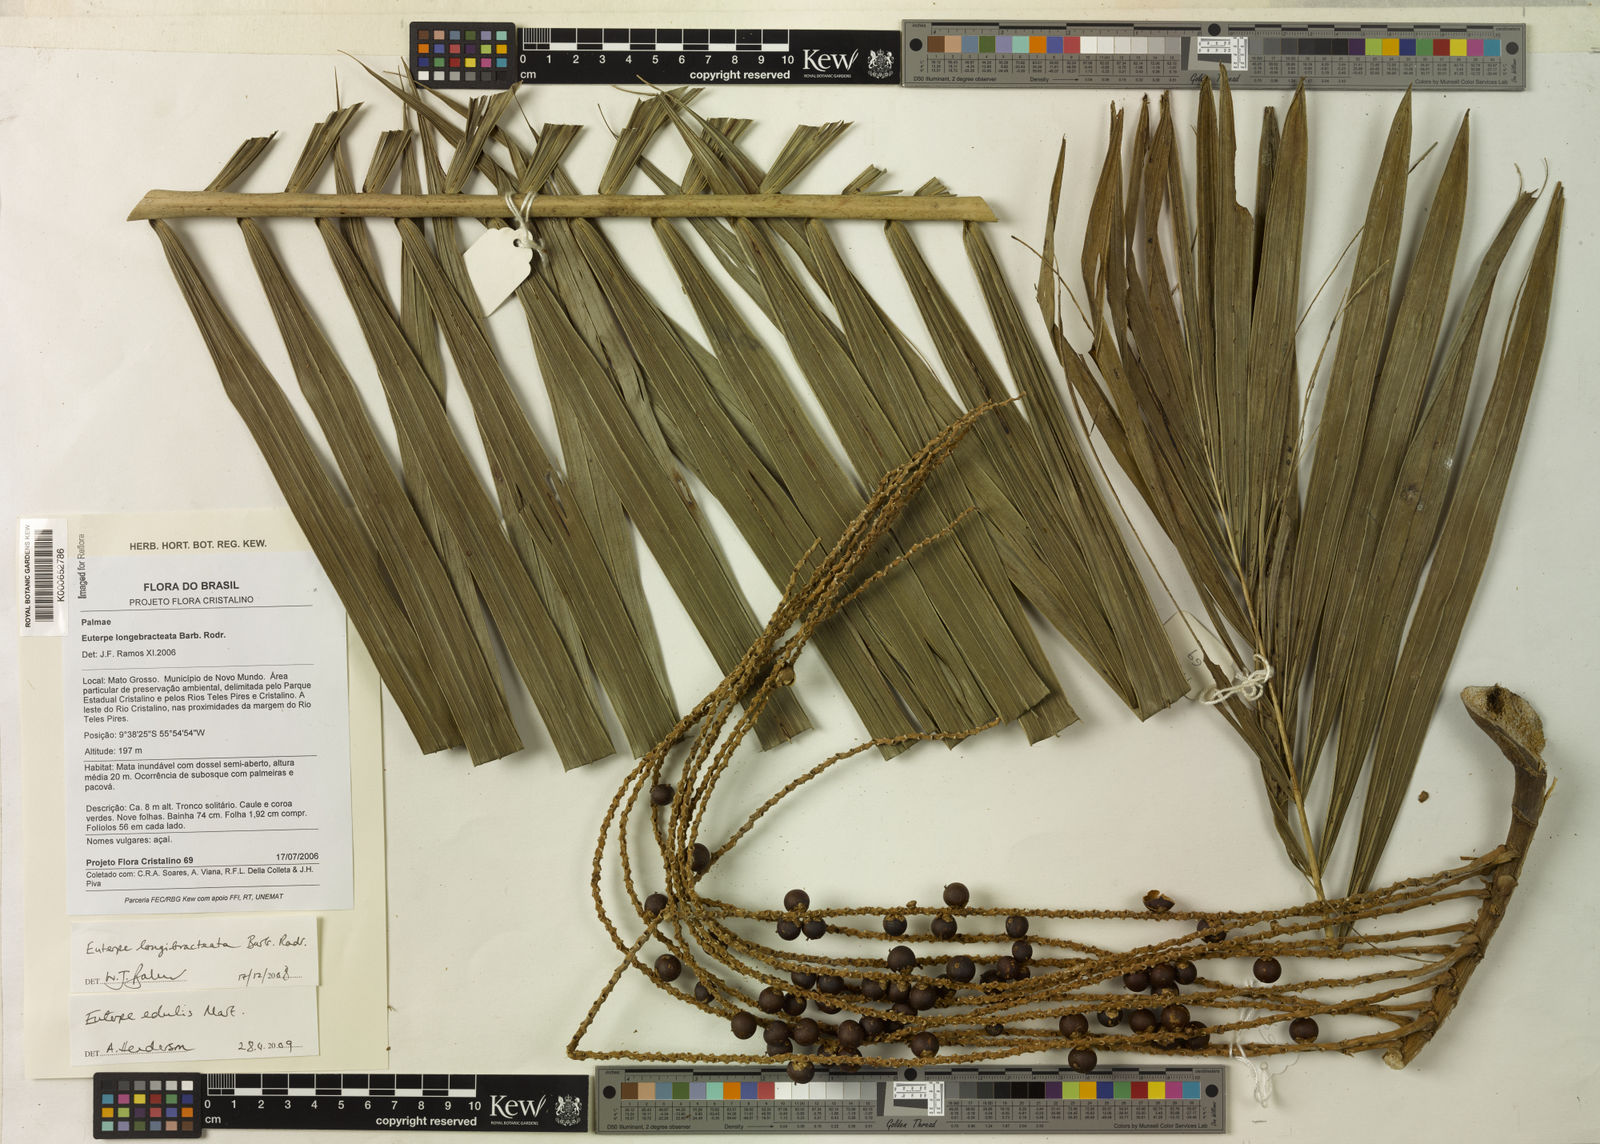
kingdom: Plantae
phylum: Tracheophyta
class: Liliopsida
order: Arecales
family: Arecaceae
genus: Euterpe
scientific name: Euterpe edulis
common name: Assai palm
